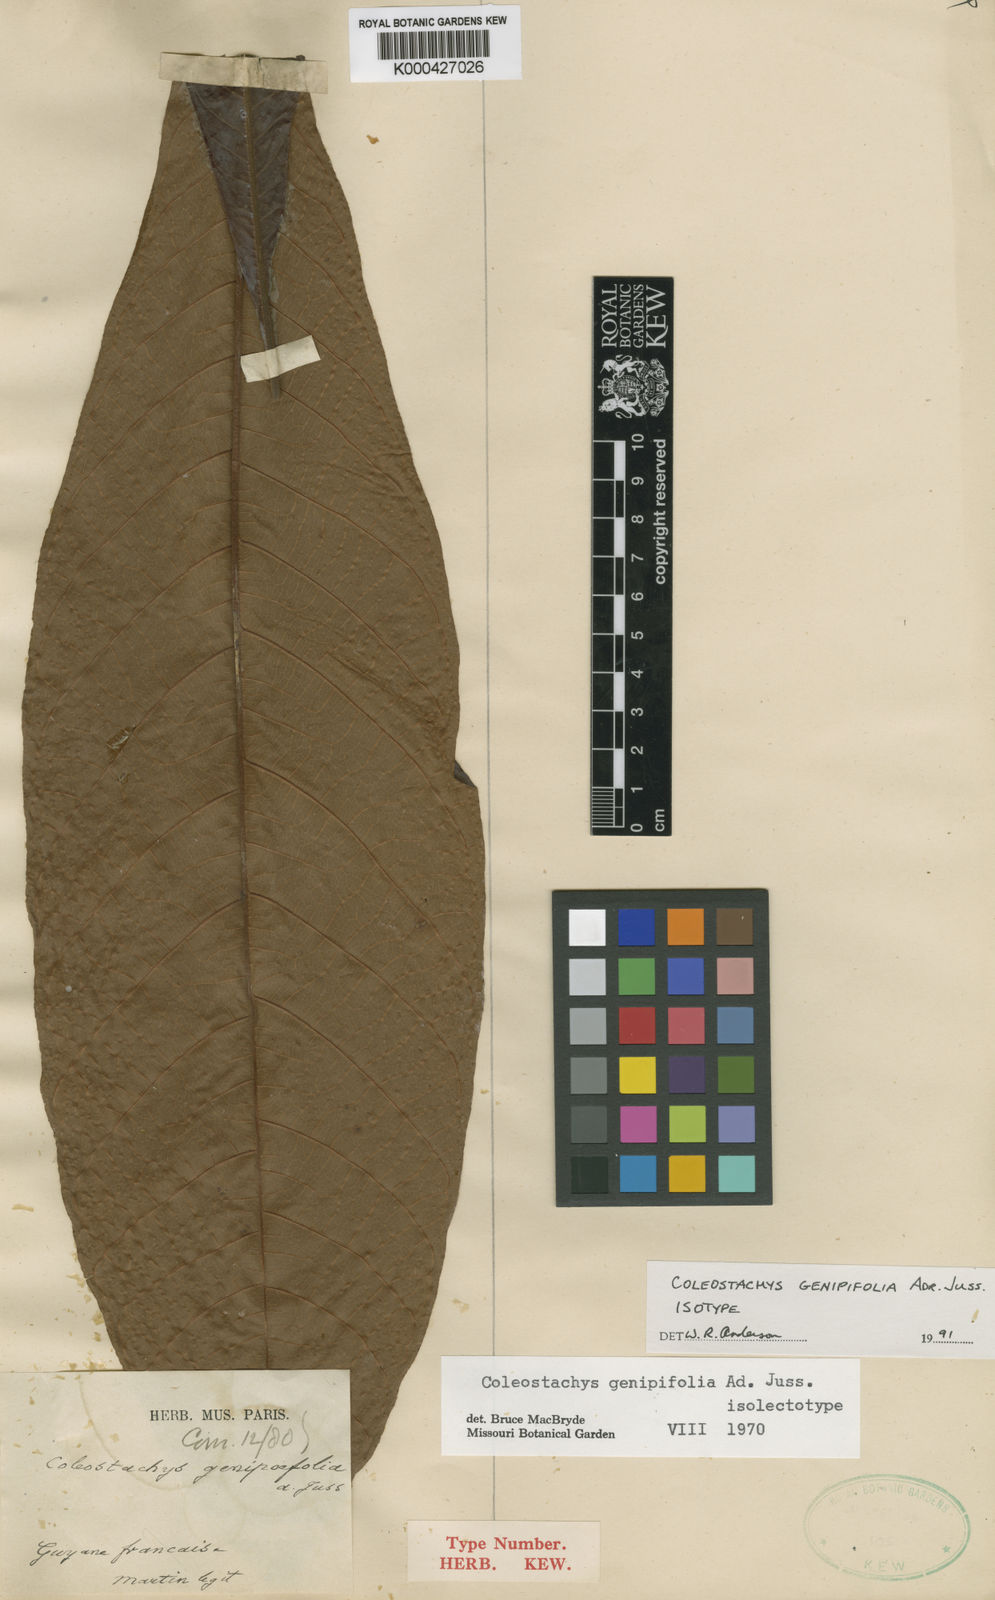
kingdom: Plantae
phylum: Tracheophyta
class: Magnoliopsida
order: Malpighiales
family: Malpighiaceae
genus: Coleostachys
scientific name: Coleostachys genipifolia
